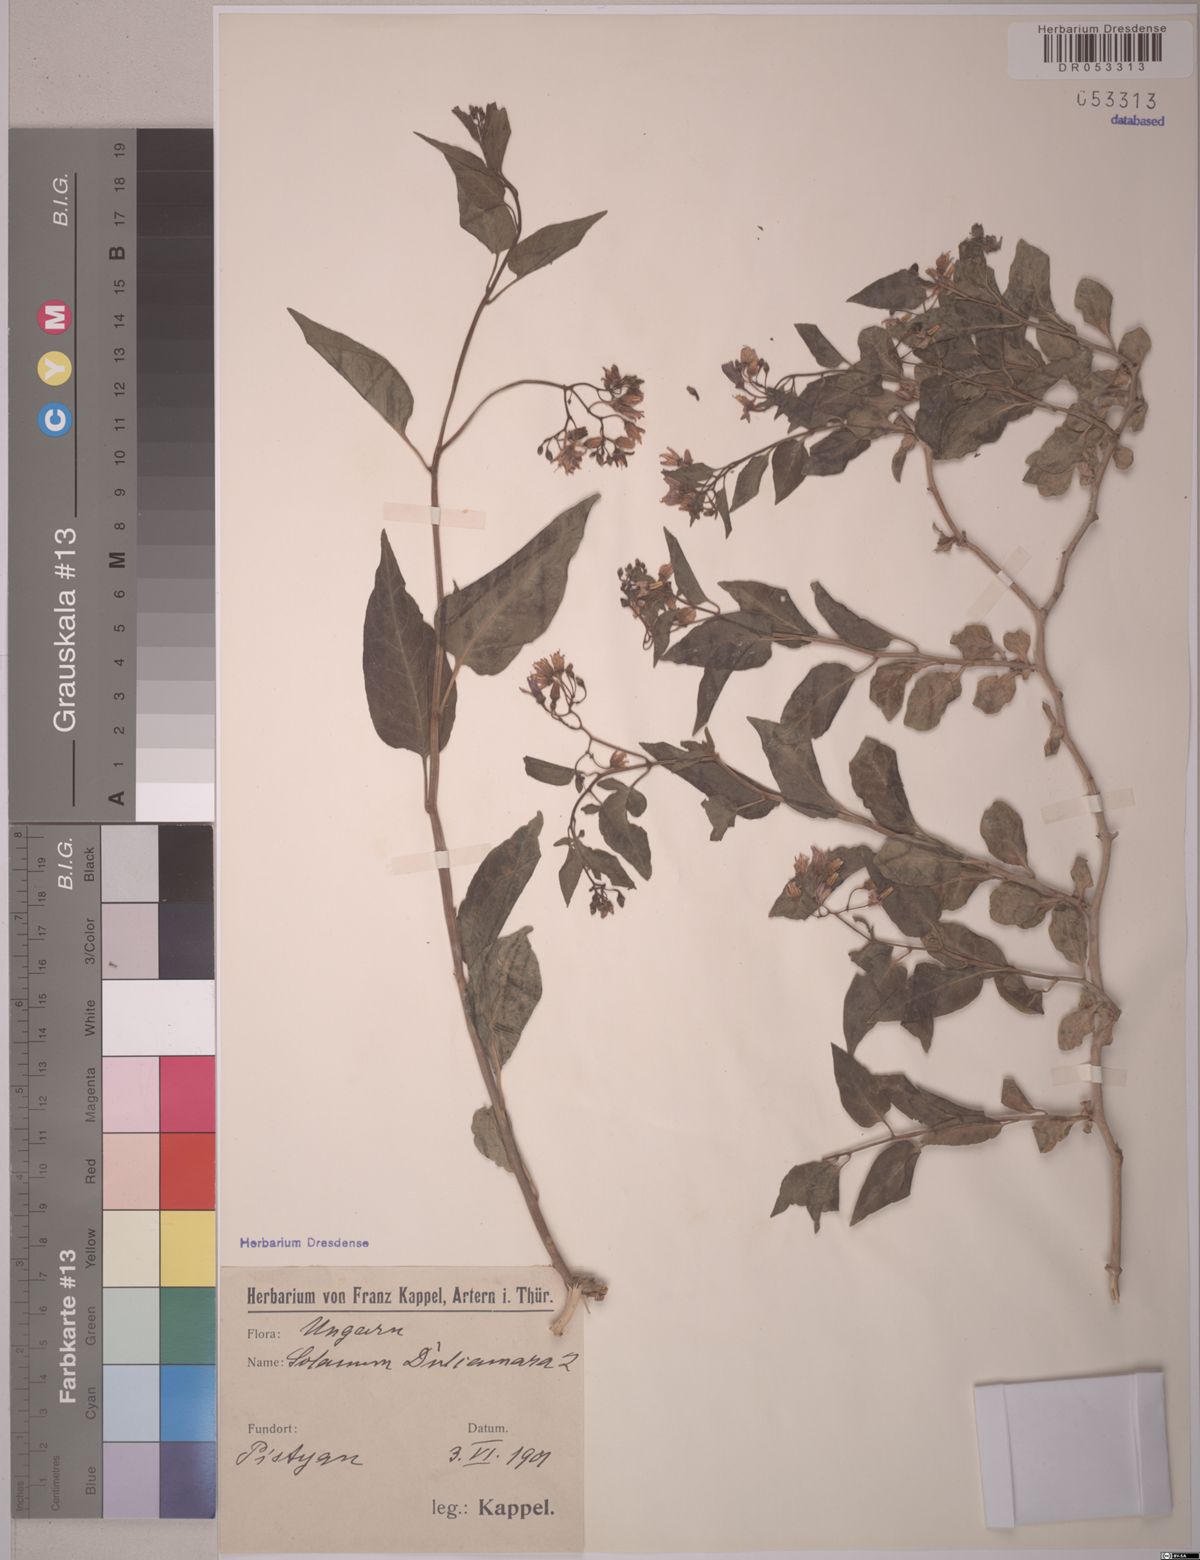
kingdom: Plantae
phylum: Tracheophyta
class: Magnoliopsida
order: Solanales
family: Solanaceae
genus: Solanum
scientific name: Solanum dulcamara
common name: Climbing nightshade
